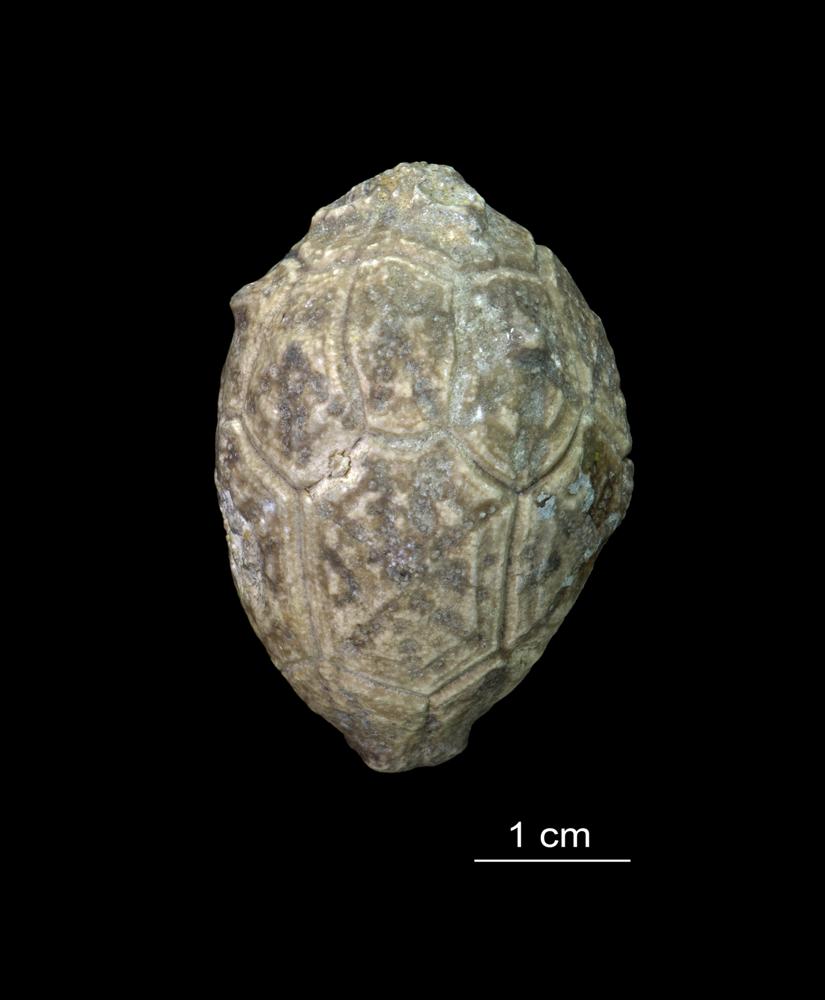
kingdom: Animalia
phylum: Echinodermata
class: Crinoidea
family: Hemicosmitidae
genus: Hemicosmites
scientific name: Hemicosmites extraneus
